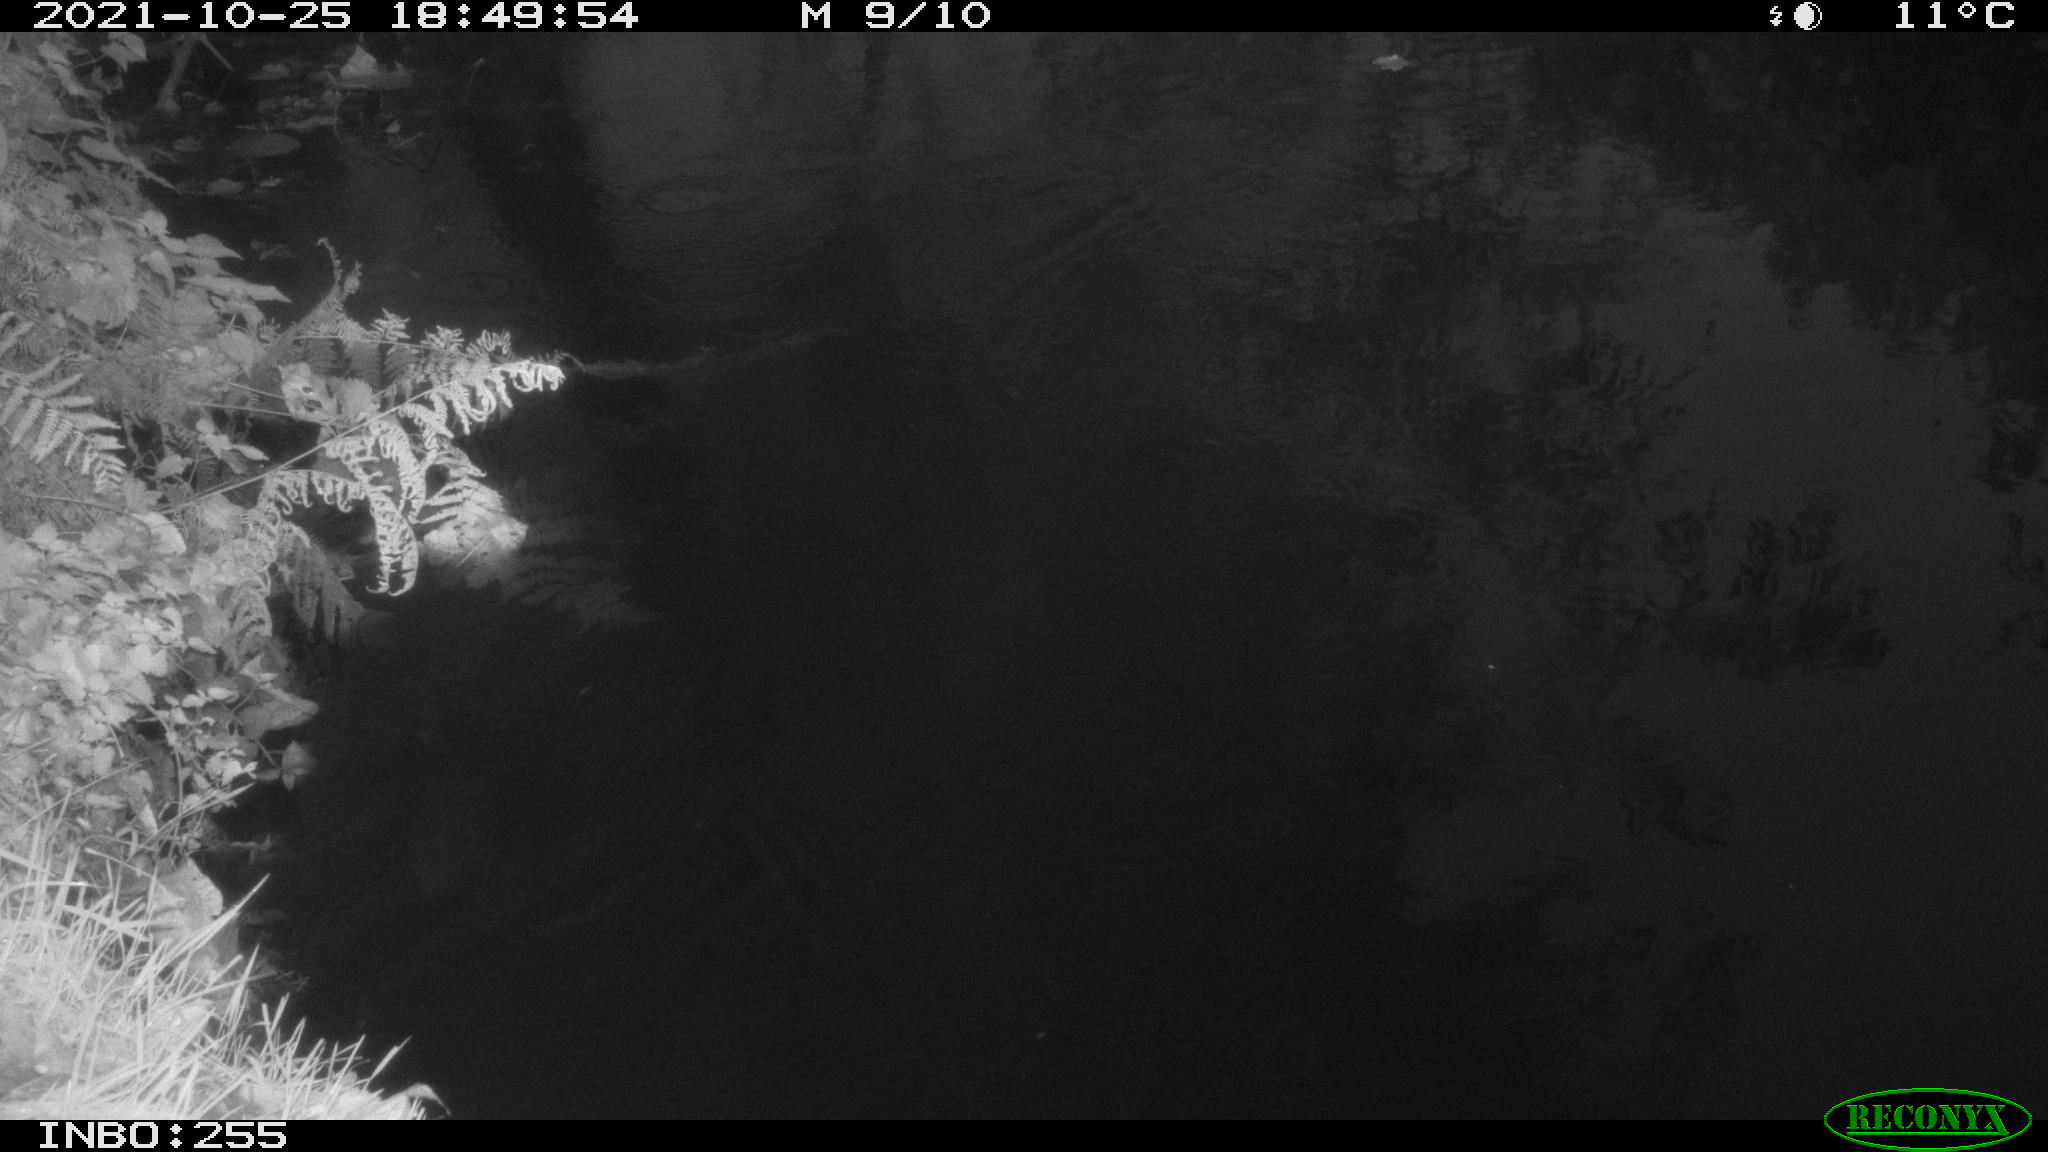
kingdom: Animalia
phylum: Chordata
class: Aves
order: Gruiformes
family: Rallidae
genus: Gallinula
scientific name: Gallinula chloropus
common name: Common moorhen
